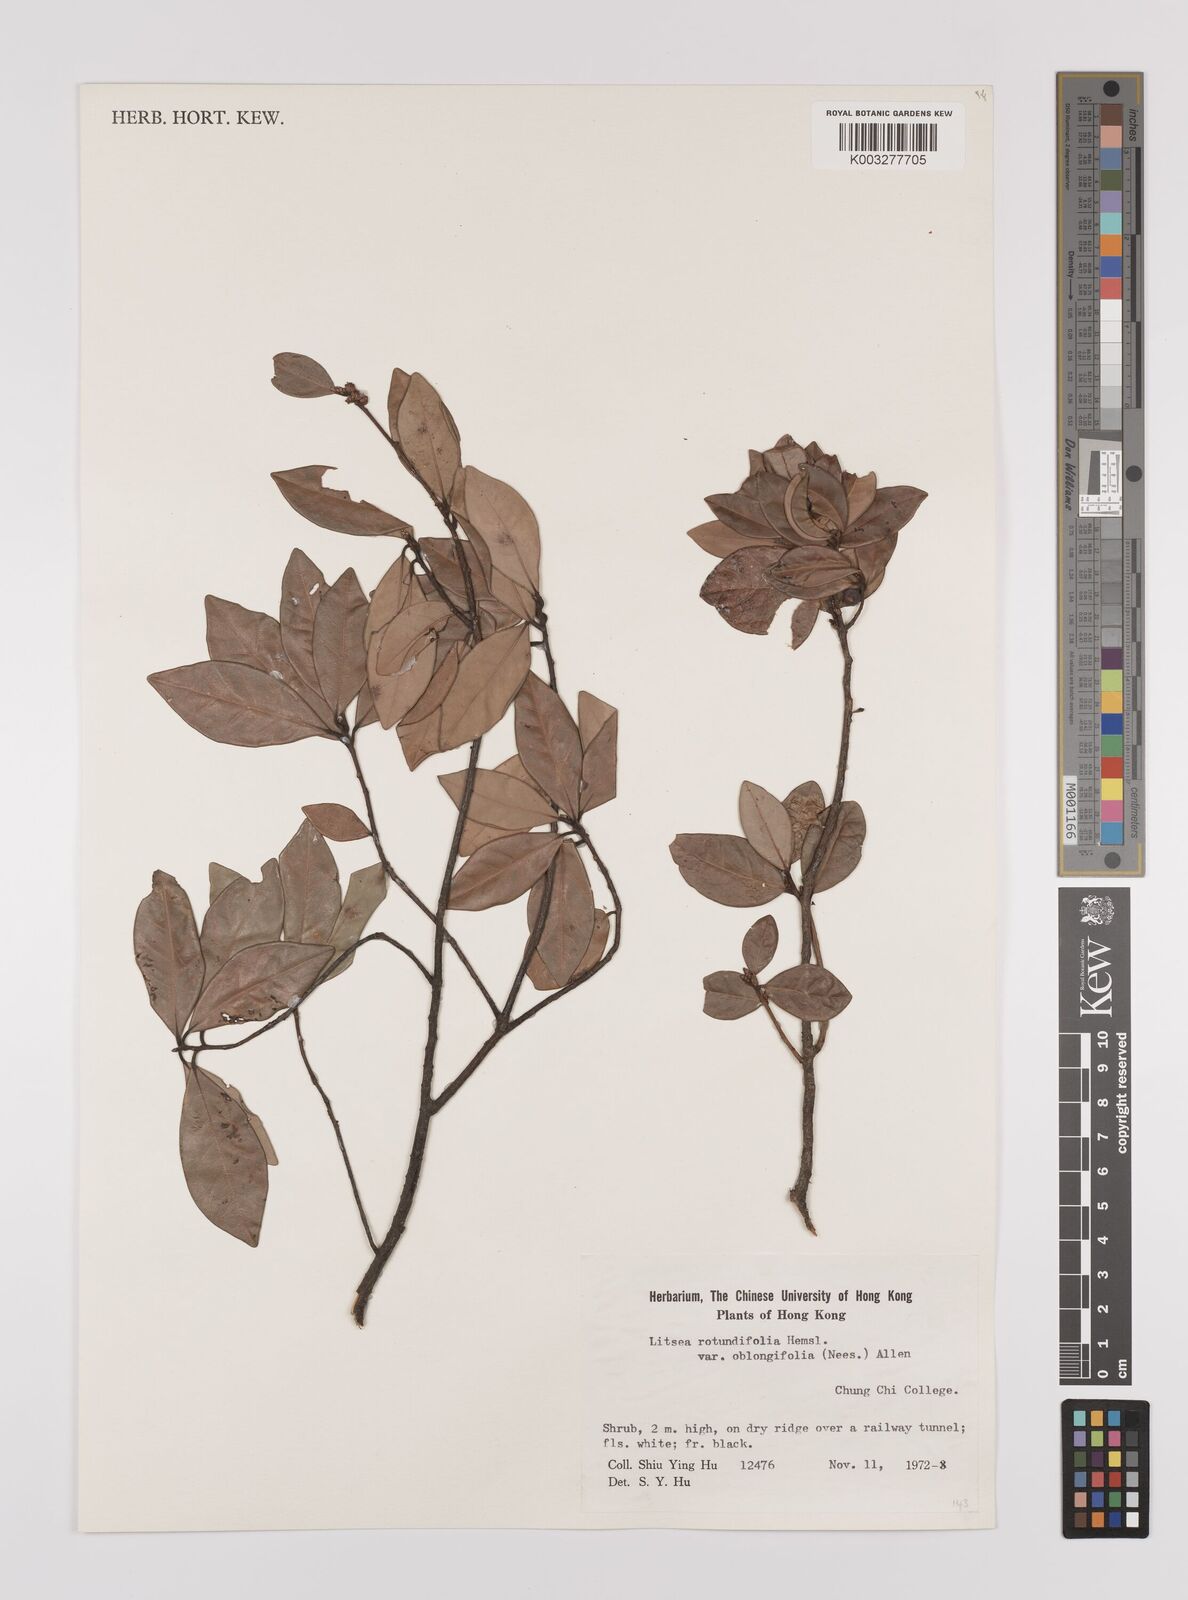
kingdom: Plantae
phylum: Tracheophyta
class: Magnoliopsida
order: Laurales
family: Lauraceae
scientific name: Lauraceae
